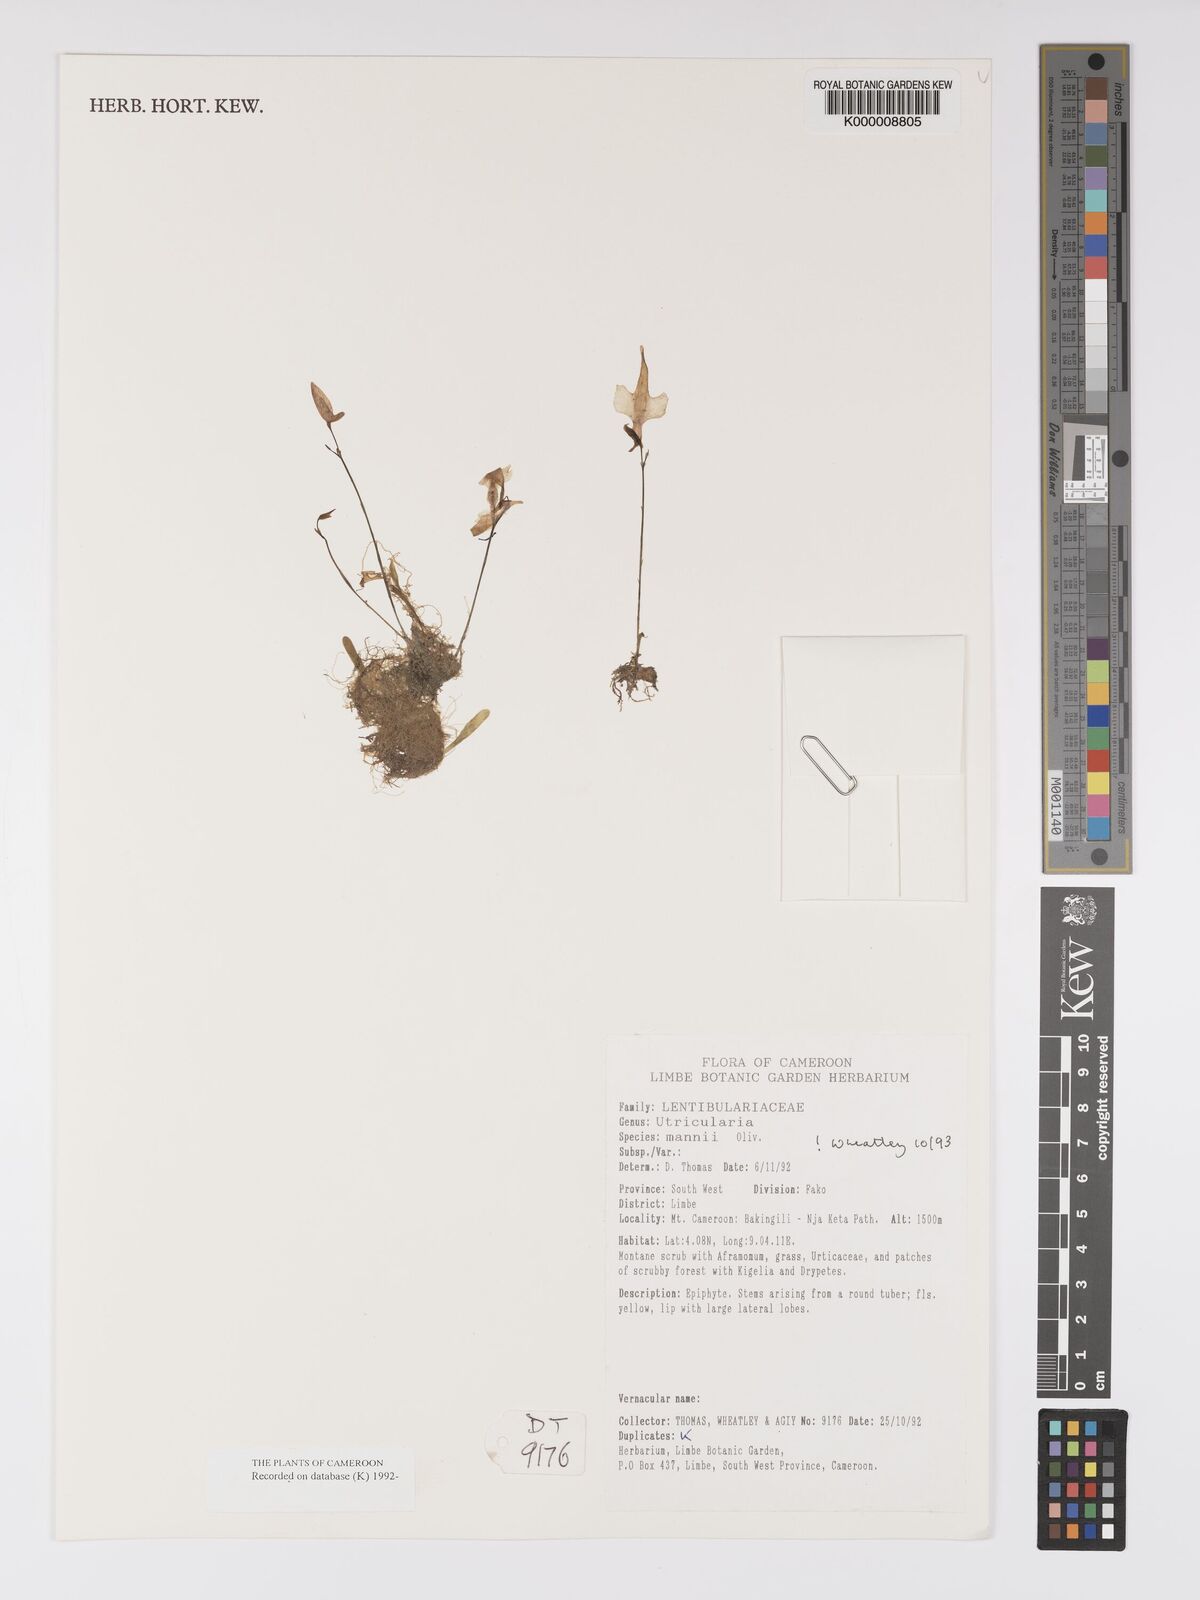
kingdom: Plantae
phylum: Tracheophyta
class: Magnoliopsida
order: Lamiales
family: Lentibulariaceae
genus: Utricularia
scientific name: Utricularia mannii
